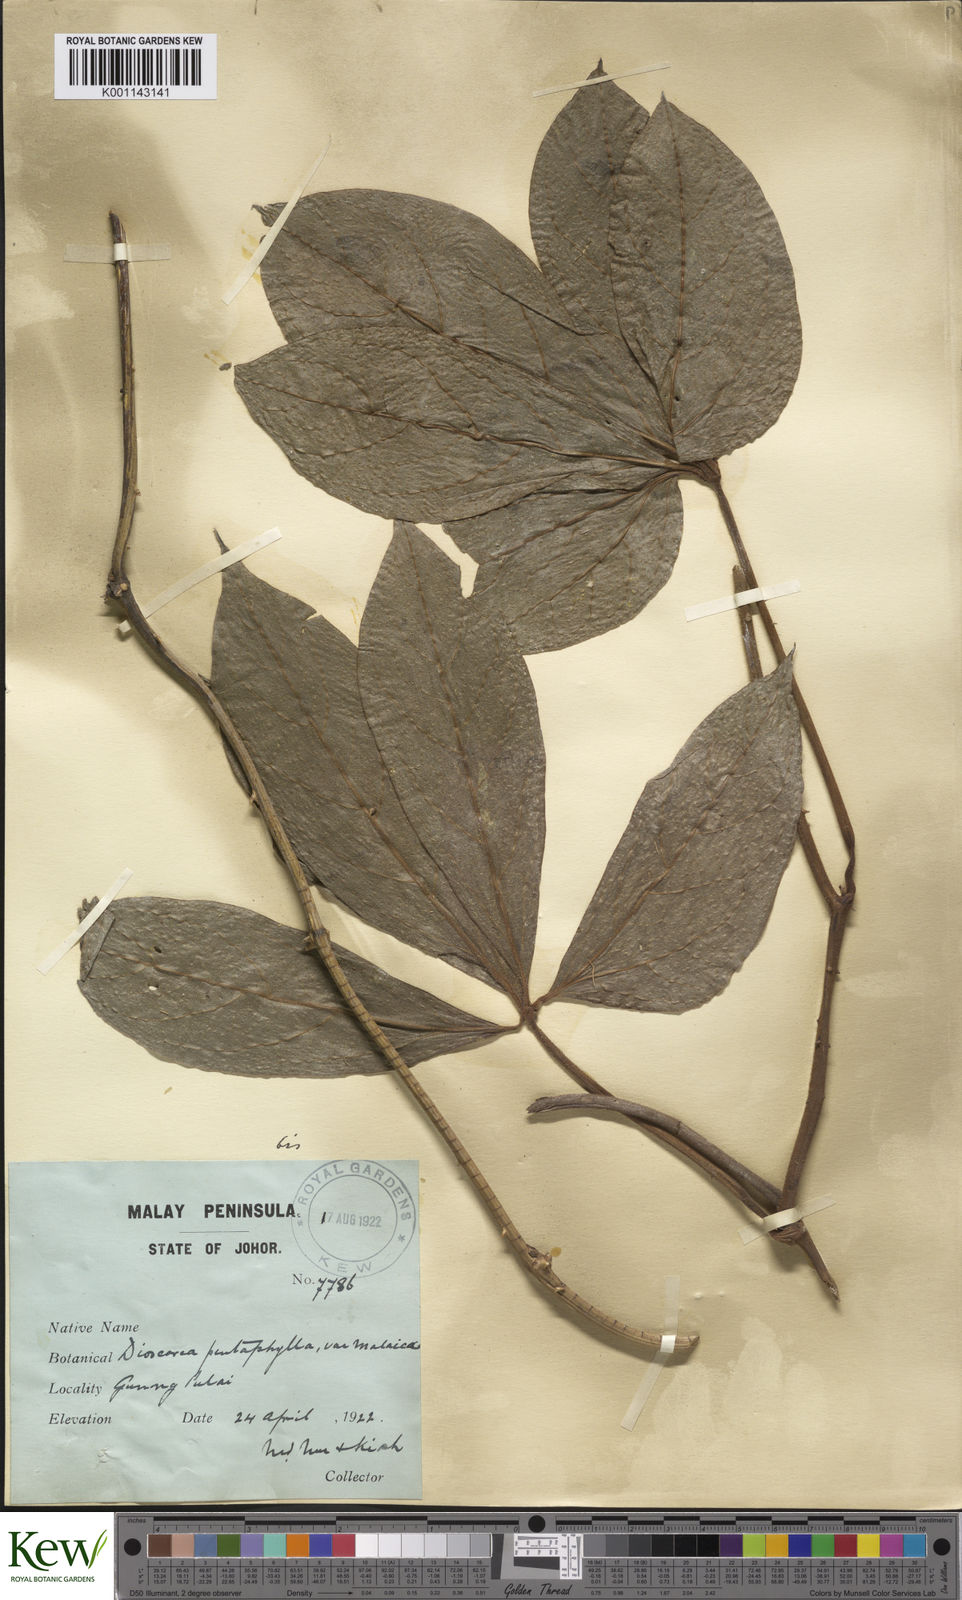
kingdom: Plantae
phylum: Tracheophyta
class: Liliopsida
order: Dioscoreales
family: Dioscoreaceae
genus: Dioscorea
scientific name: Dioscorea pentaphylla
